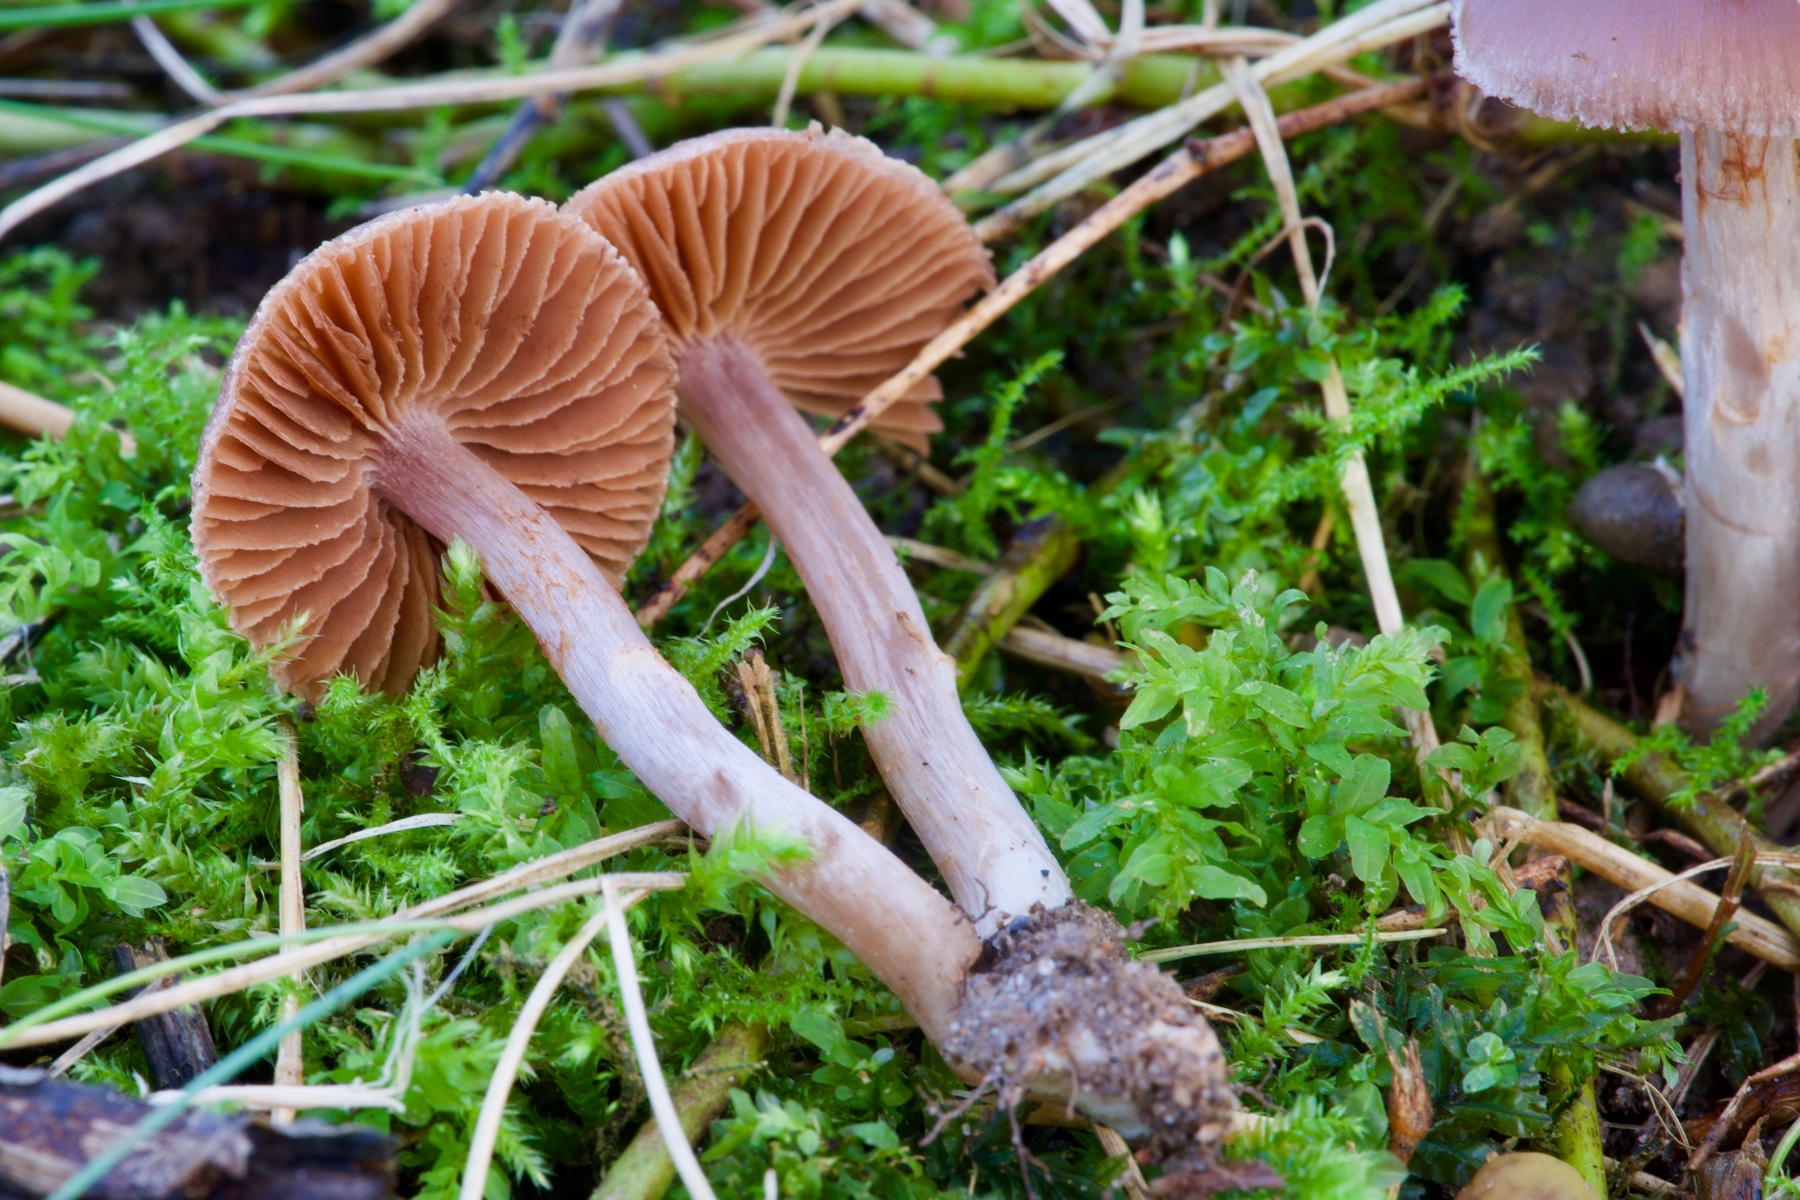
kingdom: Fungi
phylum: Basidiomycota
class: Agaricomycetes
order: Agaricales
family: Cortinariaceae
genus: Cortinarius
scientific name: Cortinarius glaphurus
